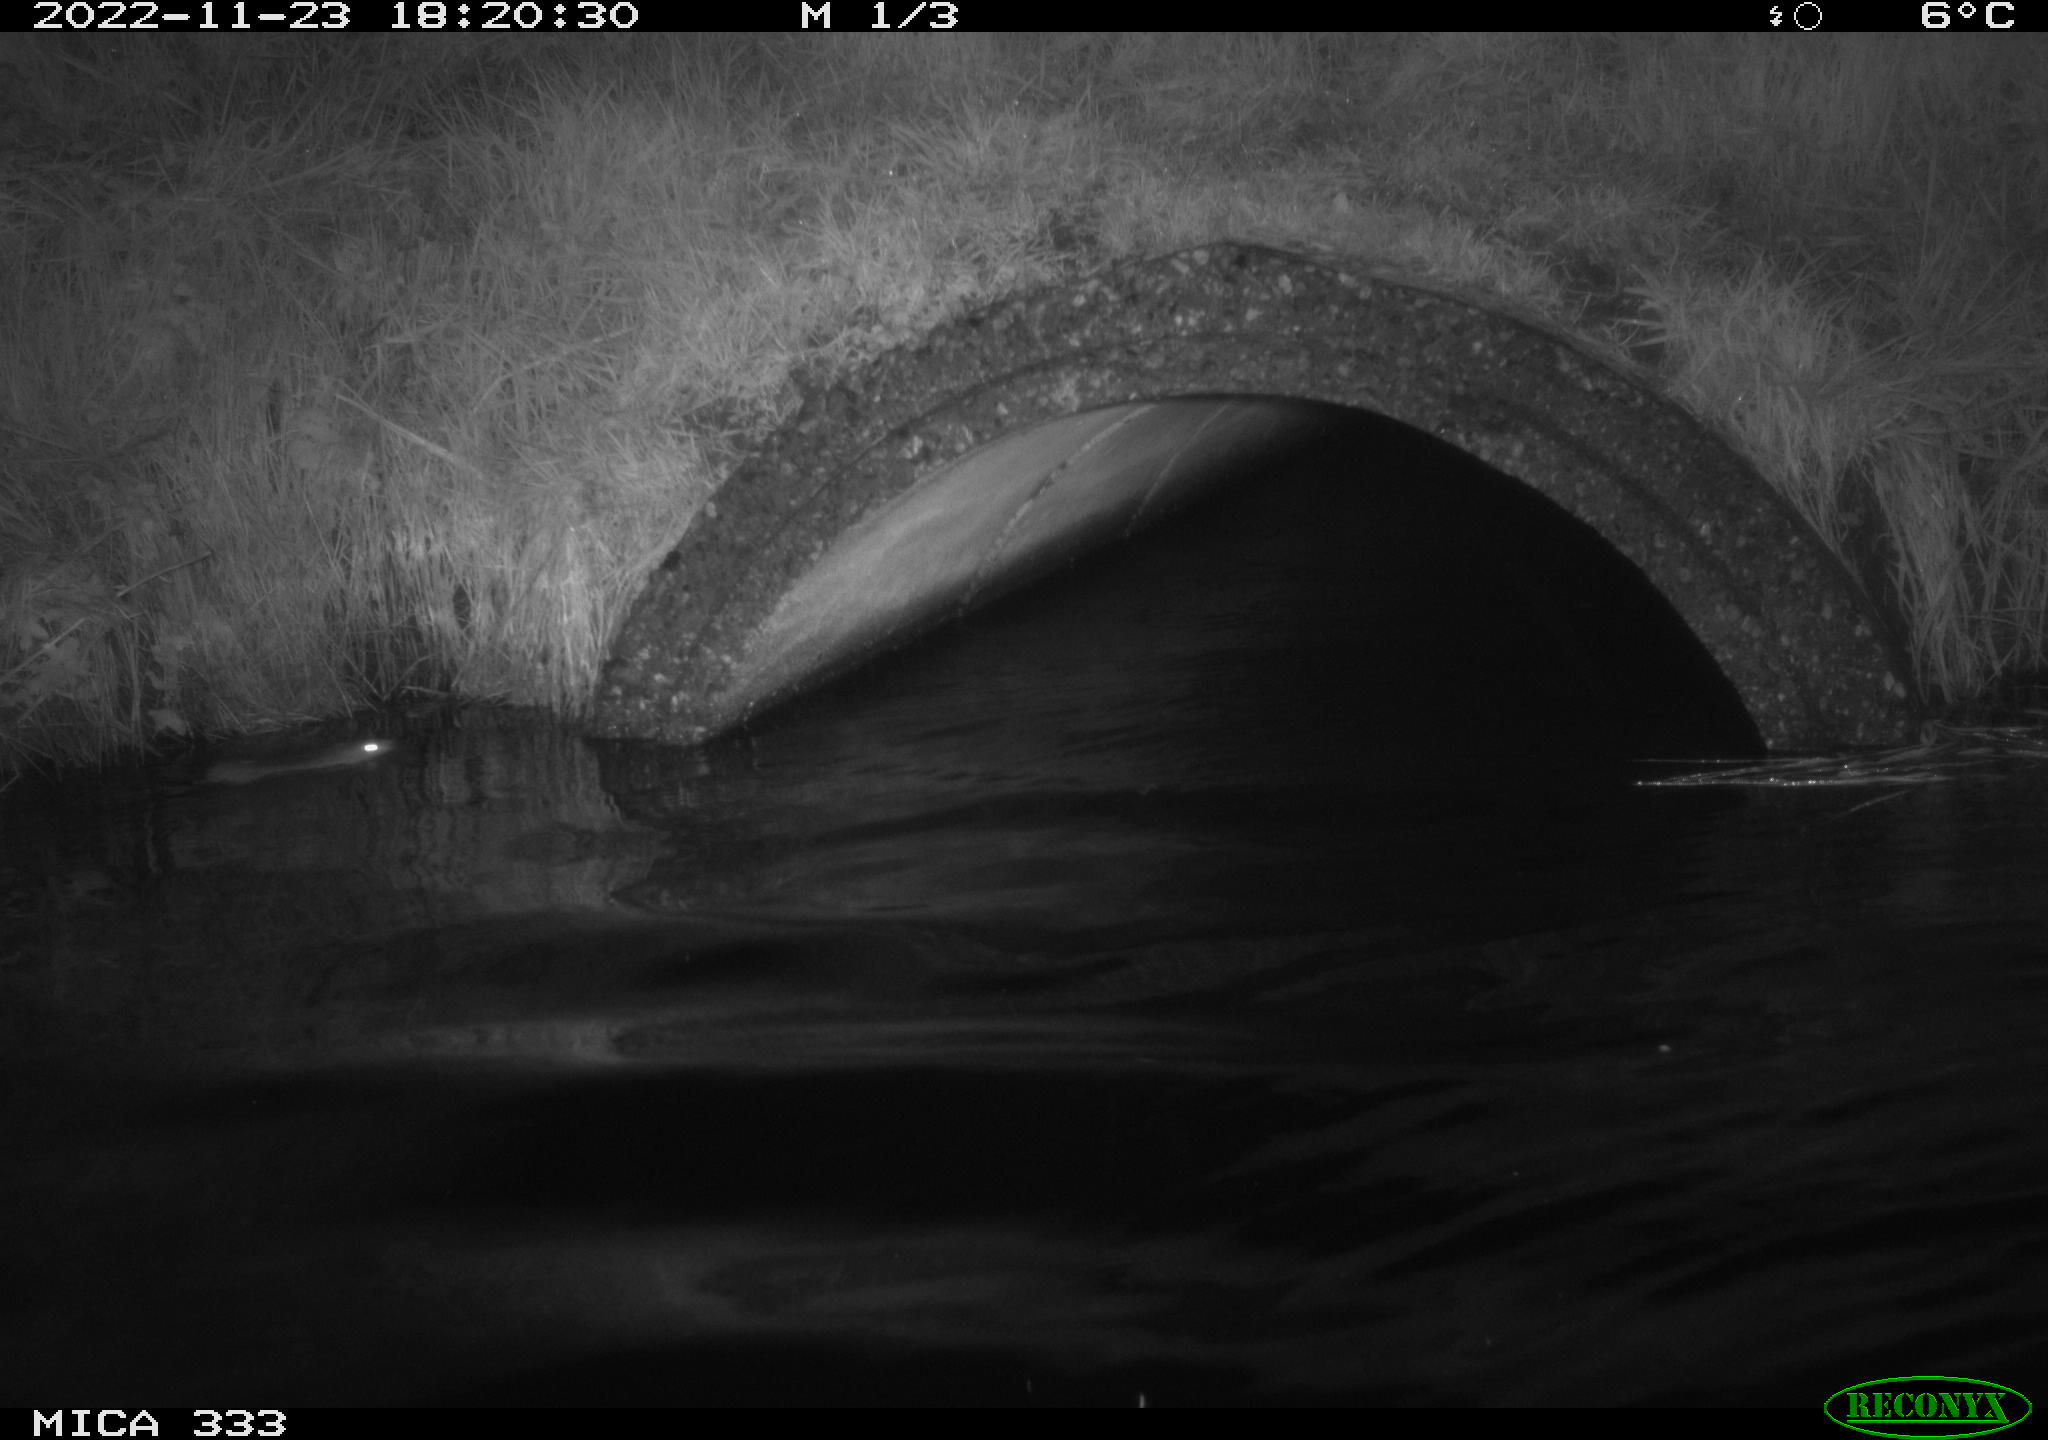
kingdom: Animalia
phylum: Chordata
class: Mammalia
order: Rodentia
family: Muridae
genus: Rattus
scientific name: Rattus norvegicus
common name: Brown rat
